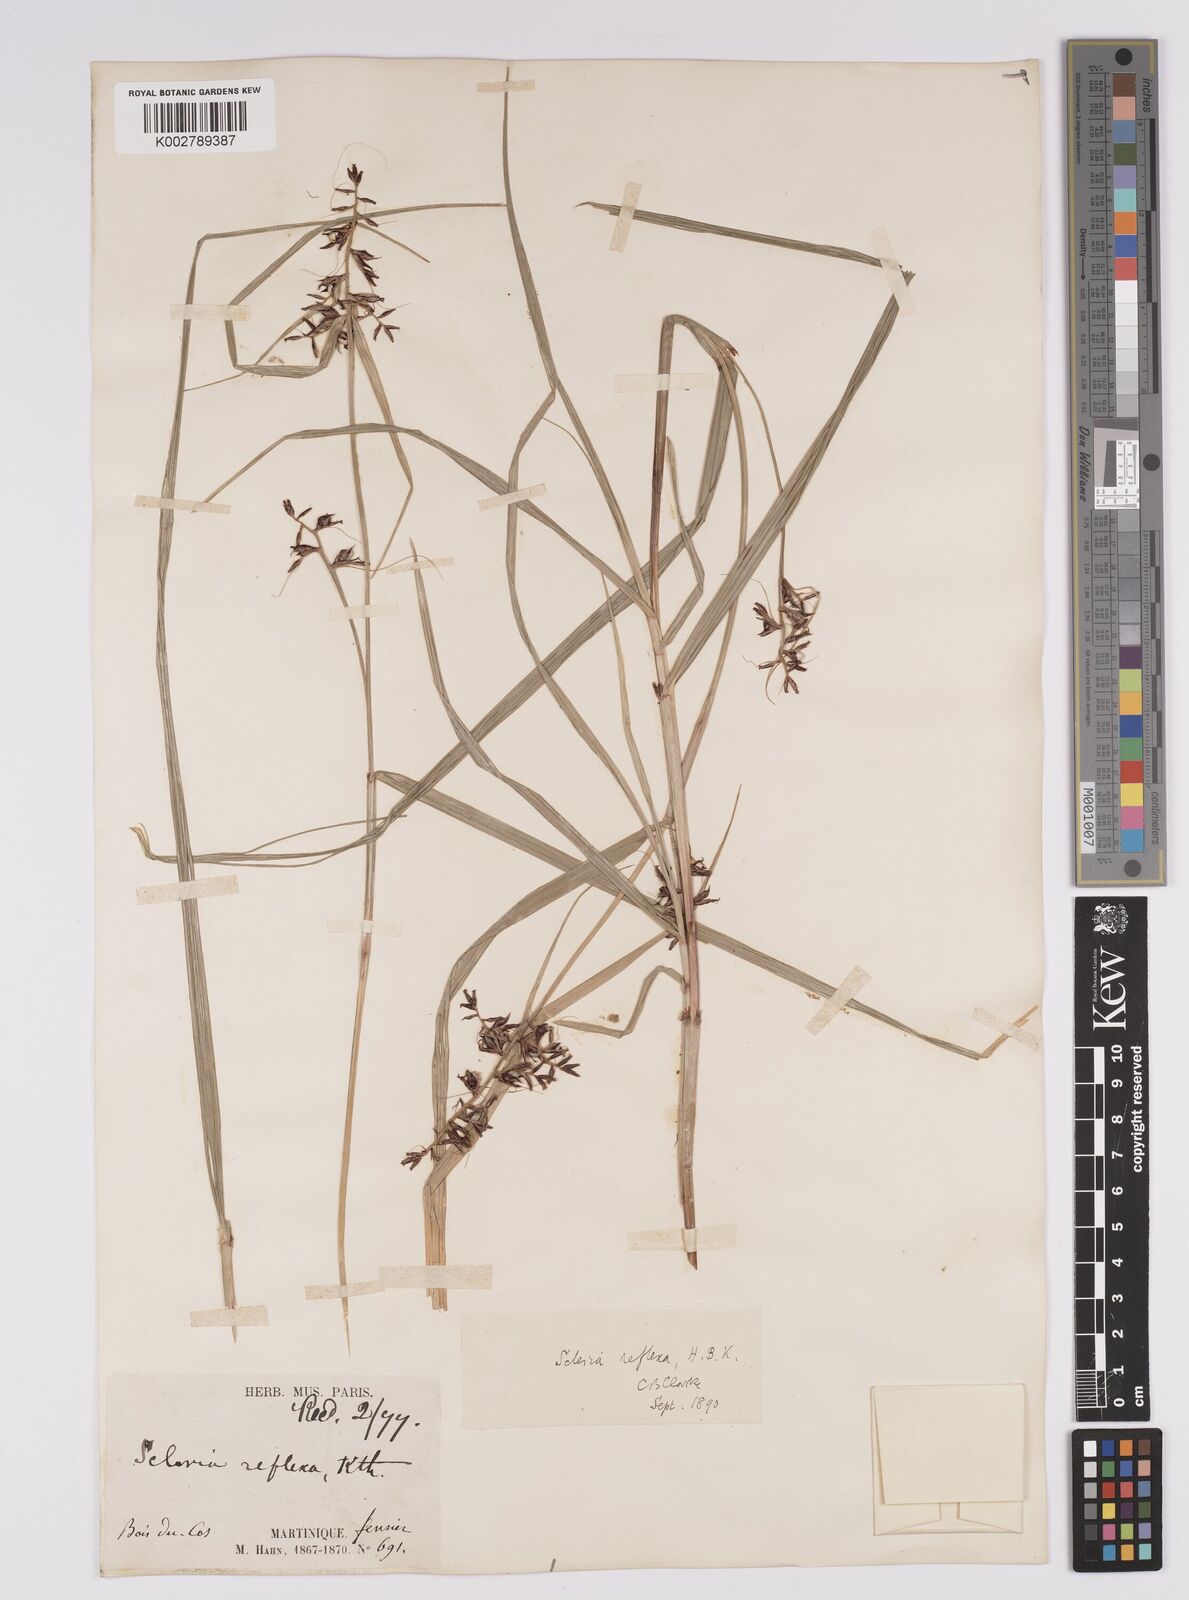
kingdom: Plantae
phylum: Tracheophyta
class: Liliopsida
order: Poales
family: Cyperaceae
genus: Scleria
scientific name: Scleria secans
